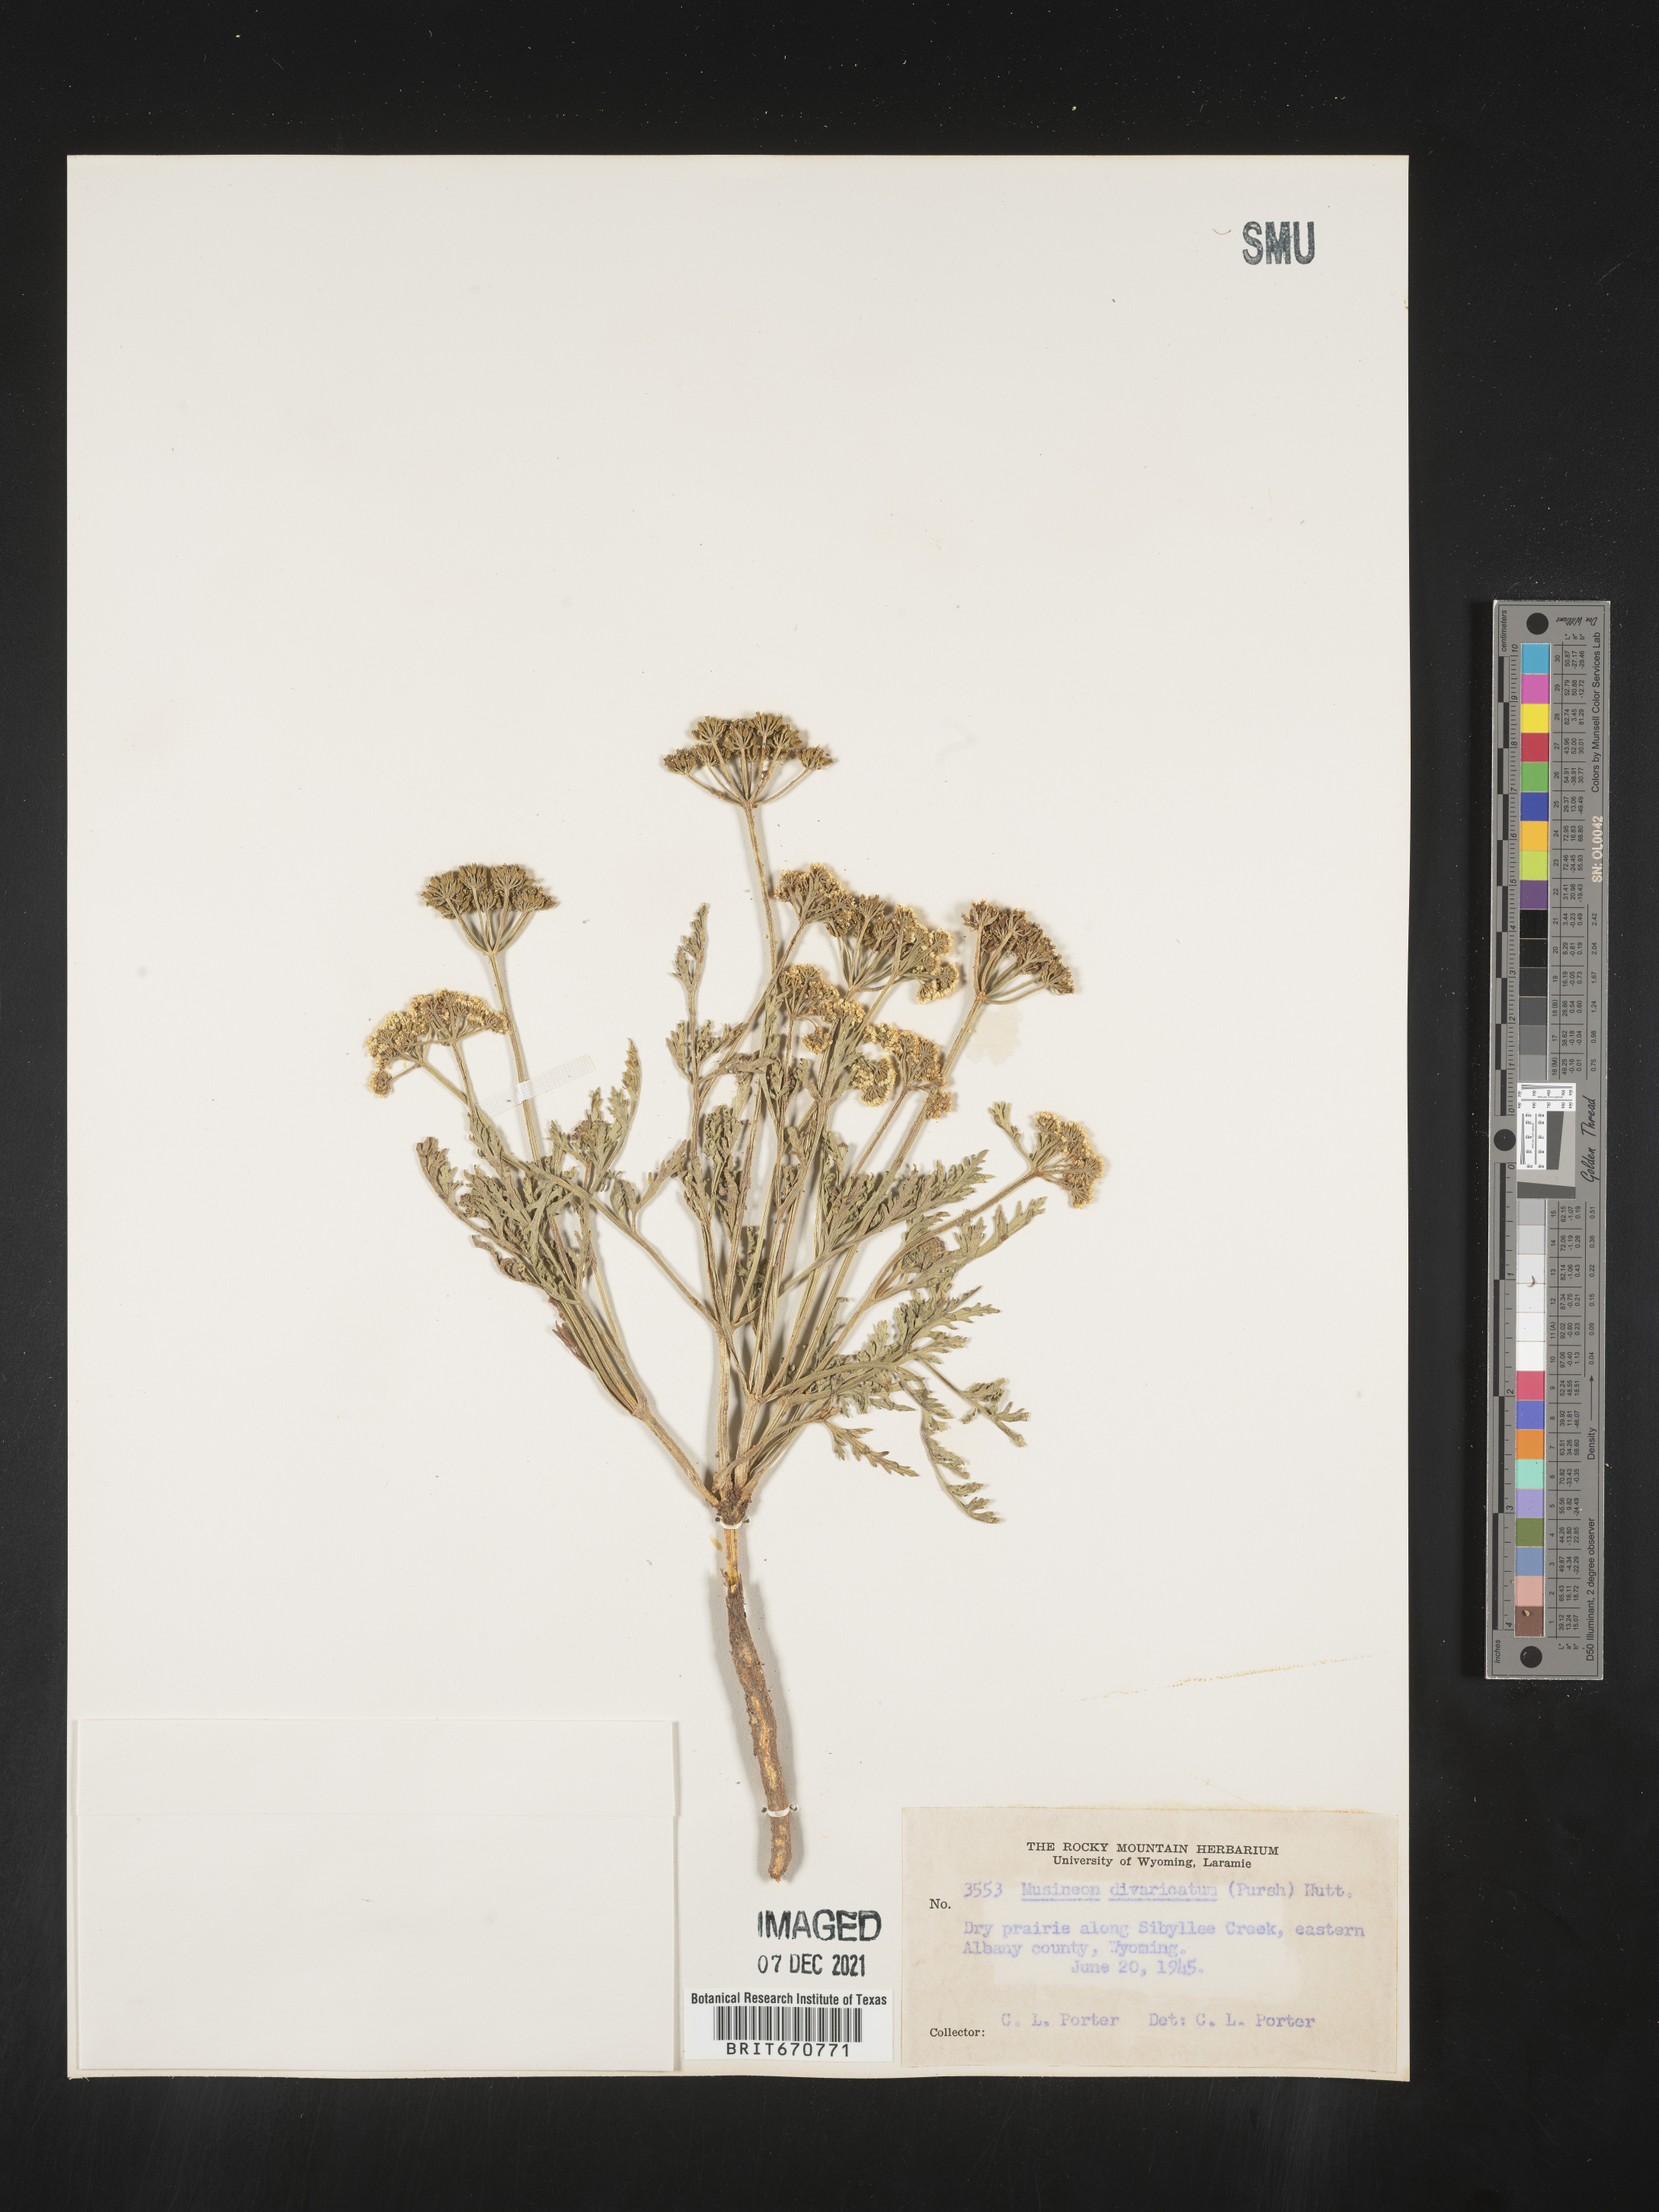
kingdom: Plantae
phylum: Tracheophyta
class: Magnoliopsida
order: Apiales
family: Apiaceae
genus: Musineon
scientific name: Musineon
